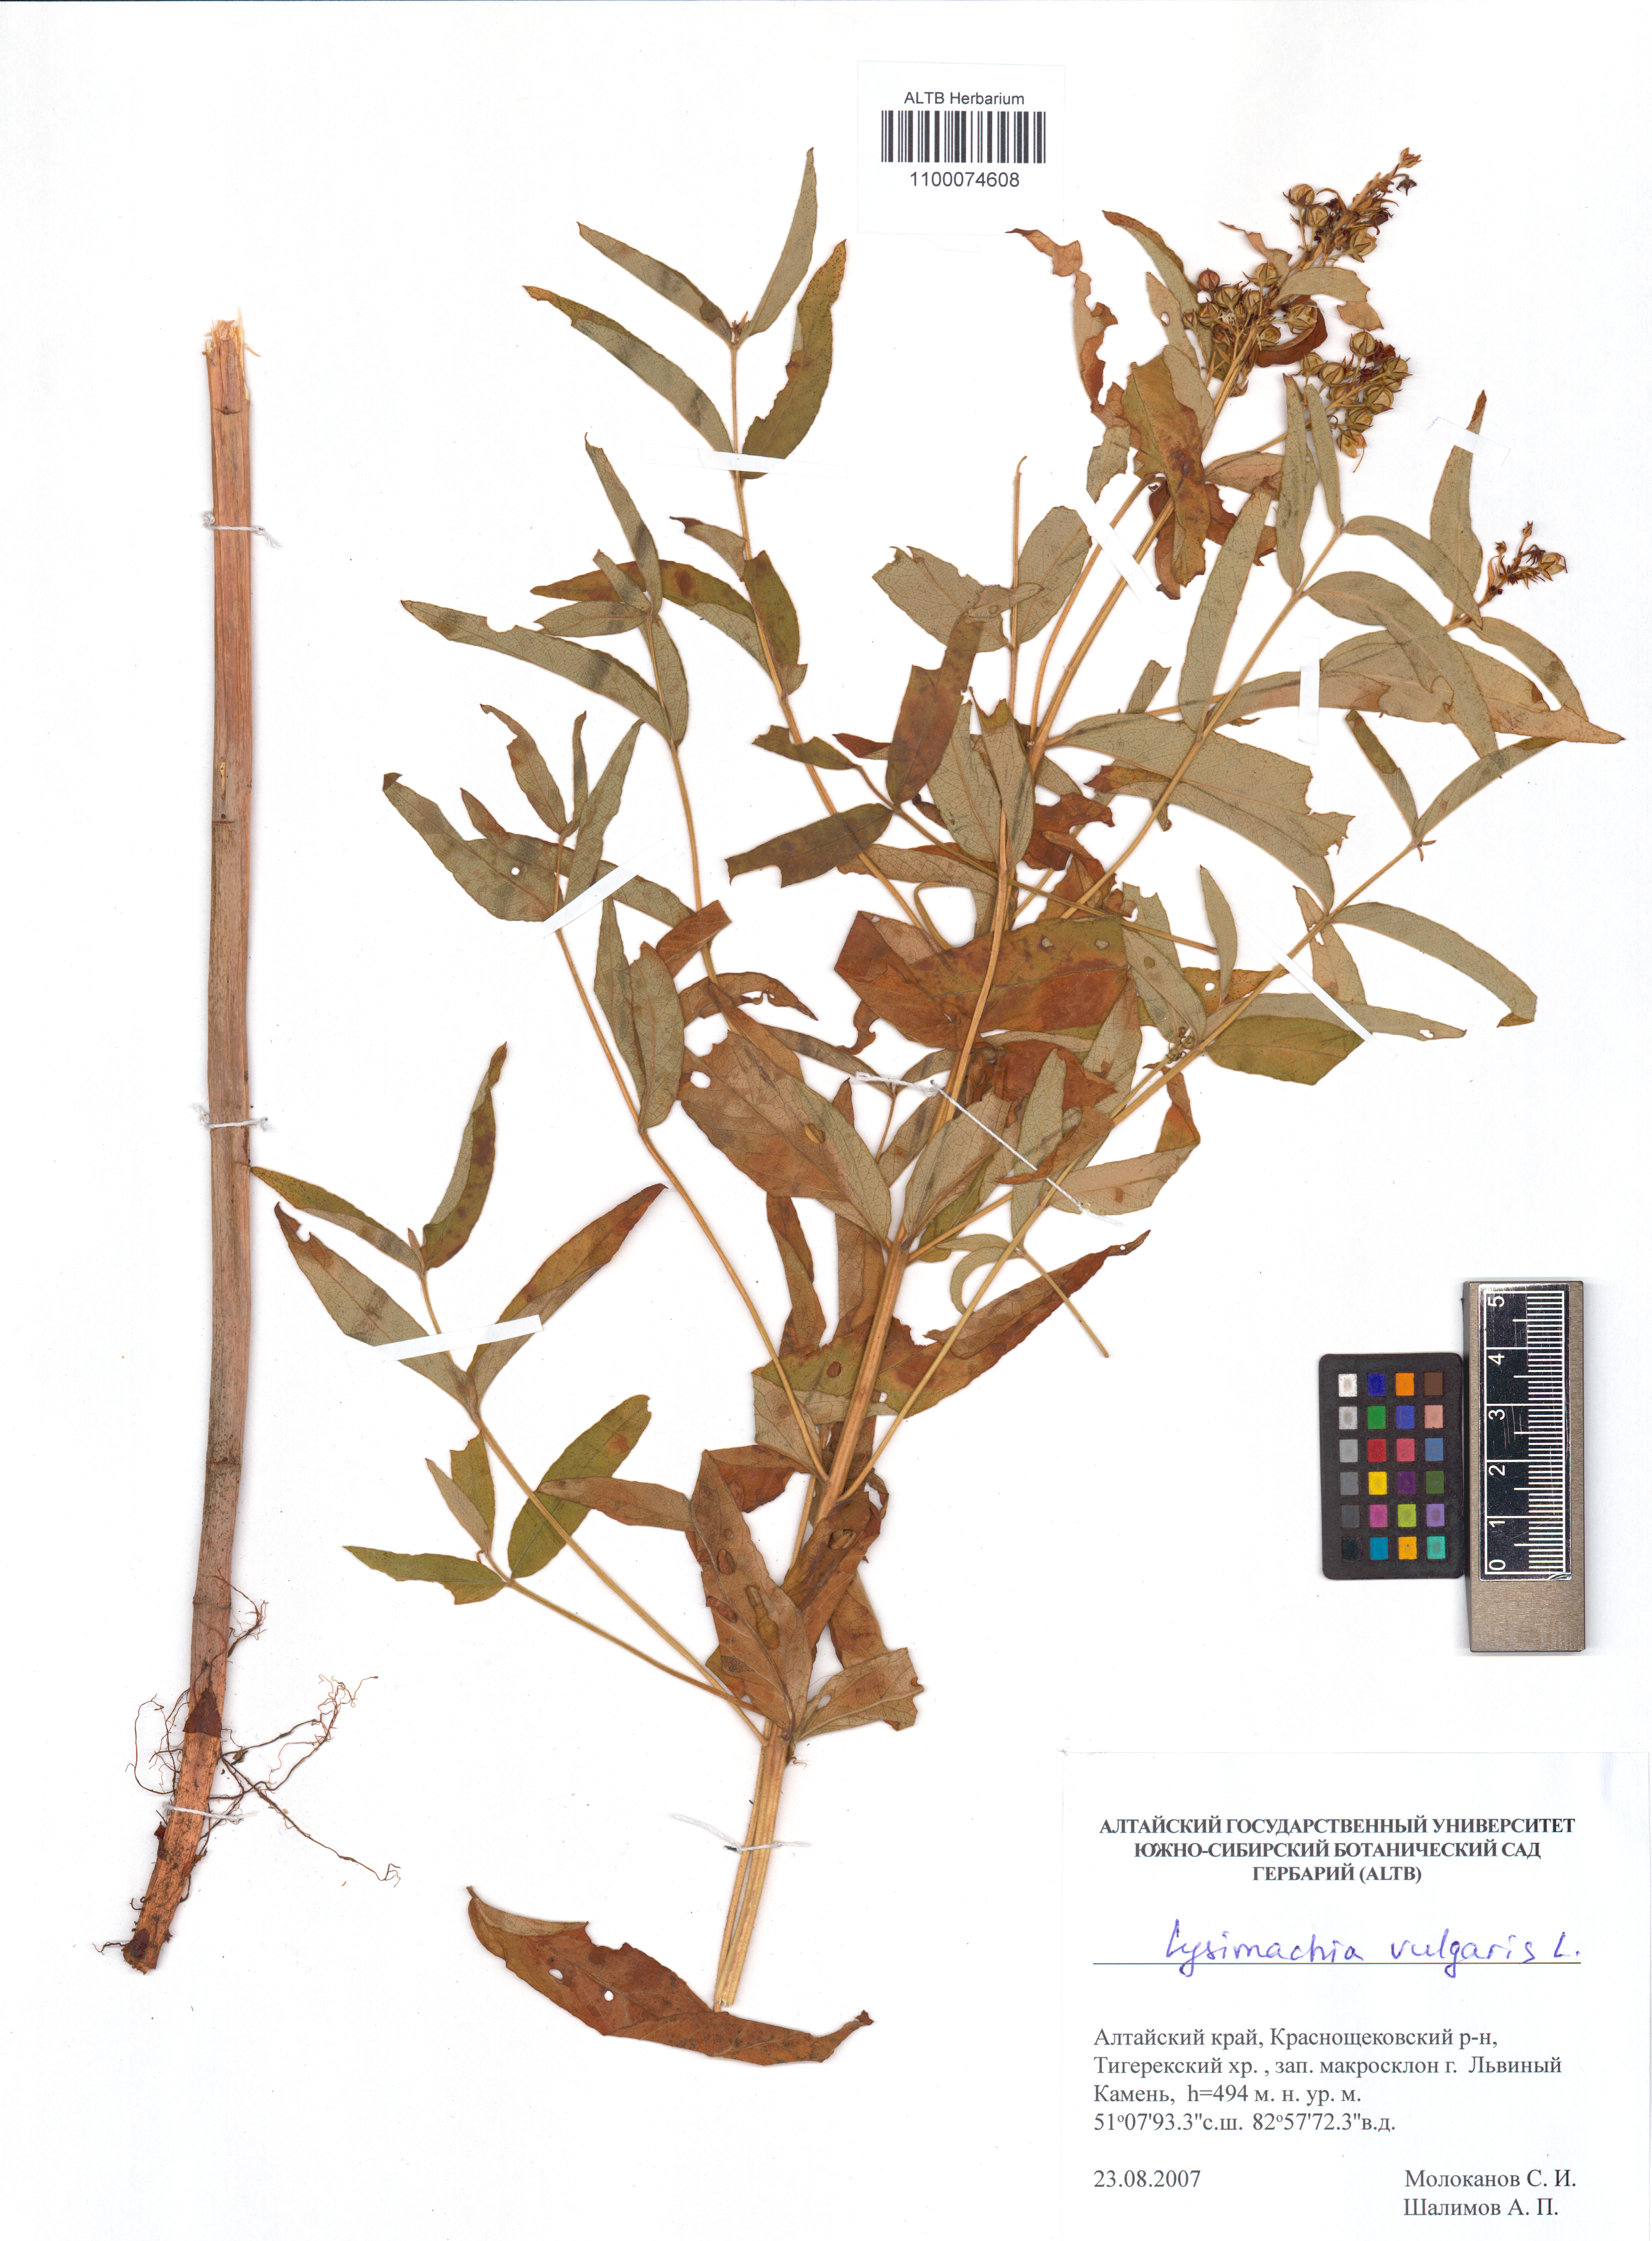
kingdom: Plantae
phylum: Tracheophyta
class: Magnoliopsida
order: Ericales
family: Primulaceae
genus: Lysimachia
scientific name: Lysimachia vulgaris
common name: Yellow loosestrife
